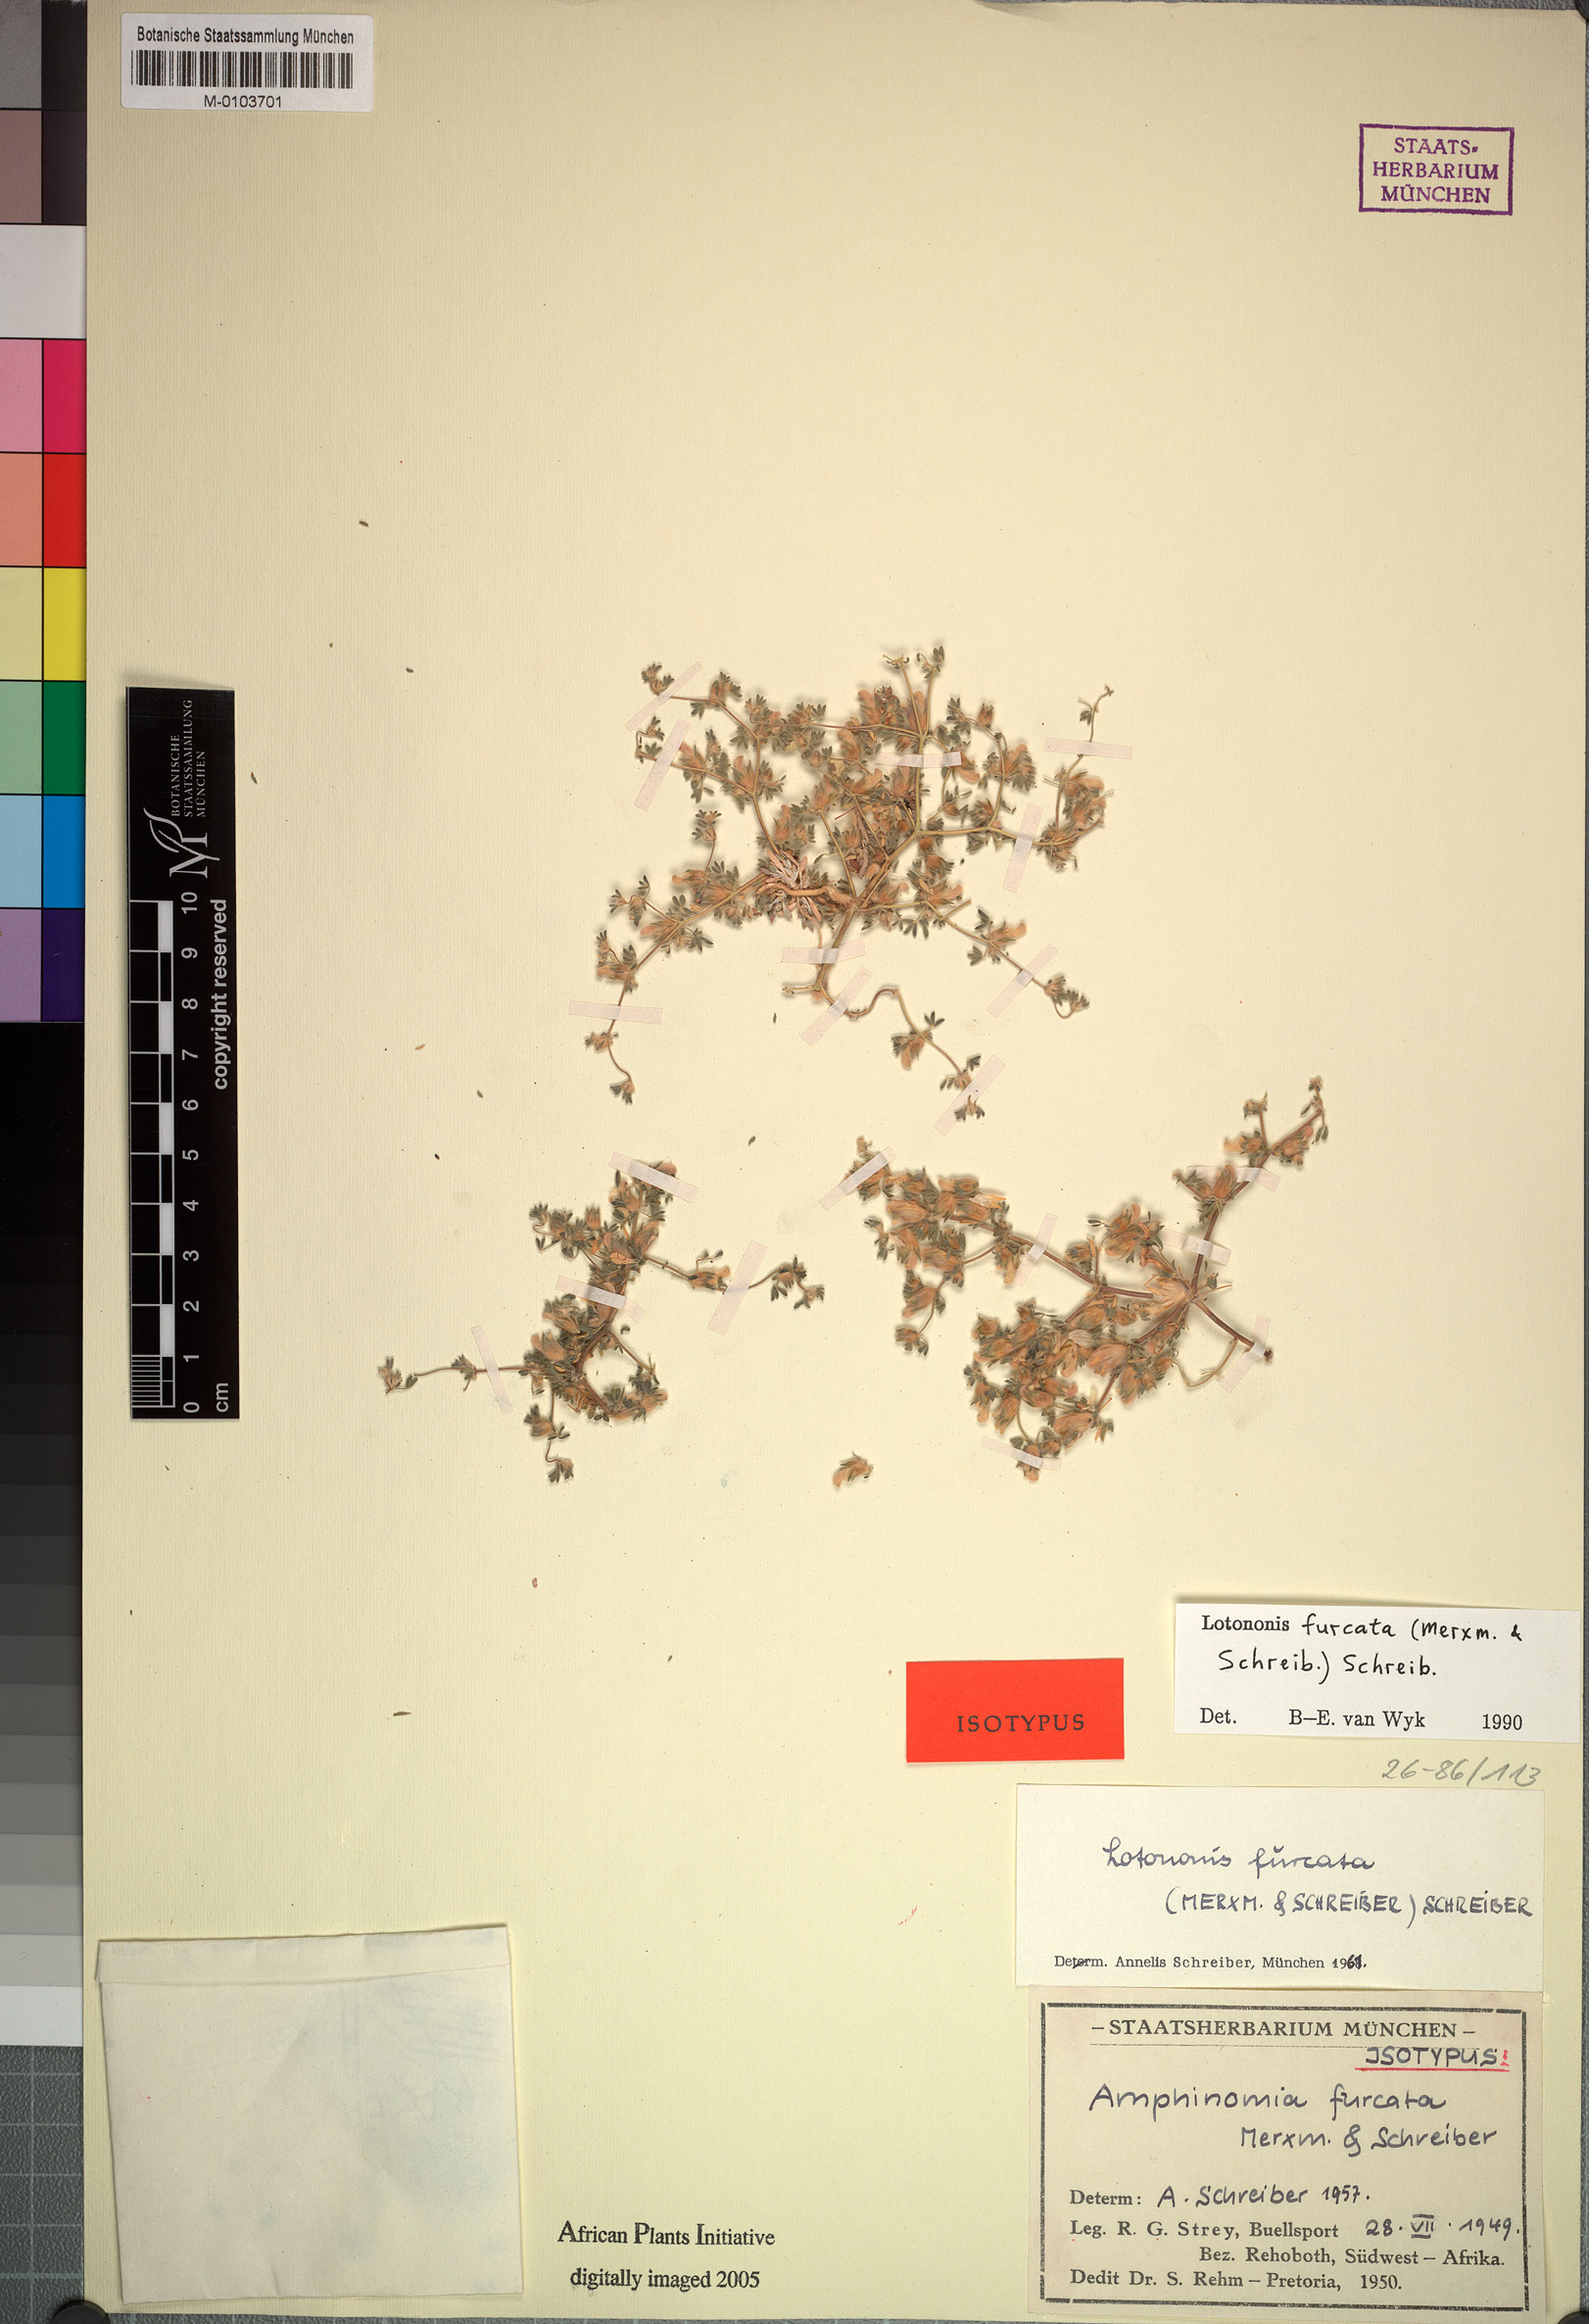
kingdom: Plantae
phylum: Tracheophyta
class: Magnoliopsida
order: Fabales
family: Fabaceae
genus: Leobordea
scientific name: Leobordea furcata
